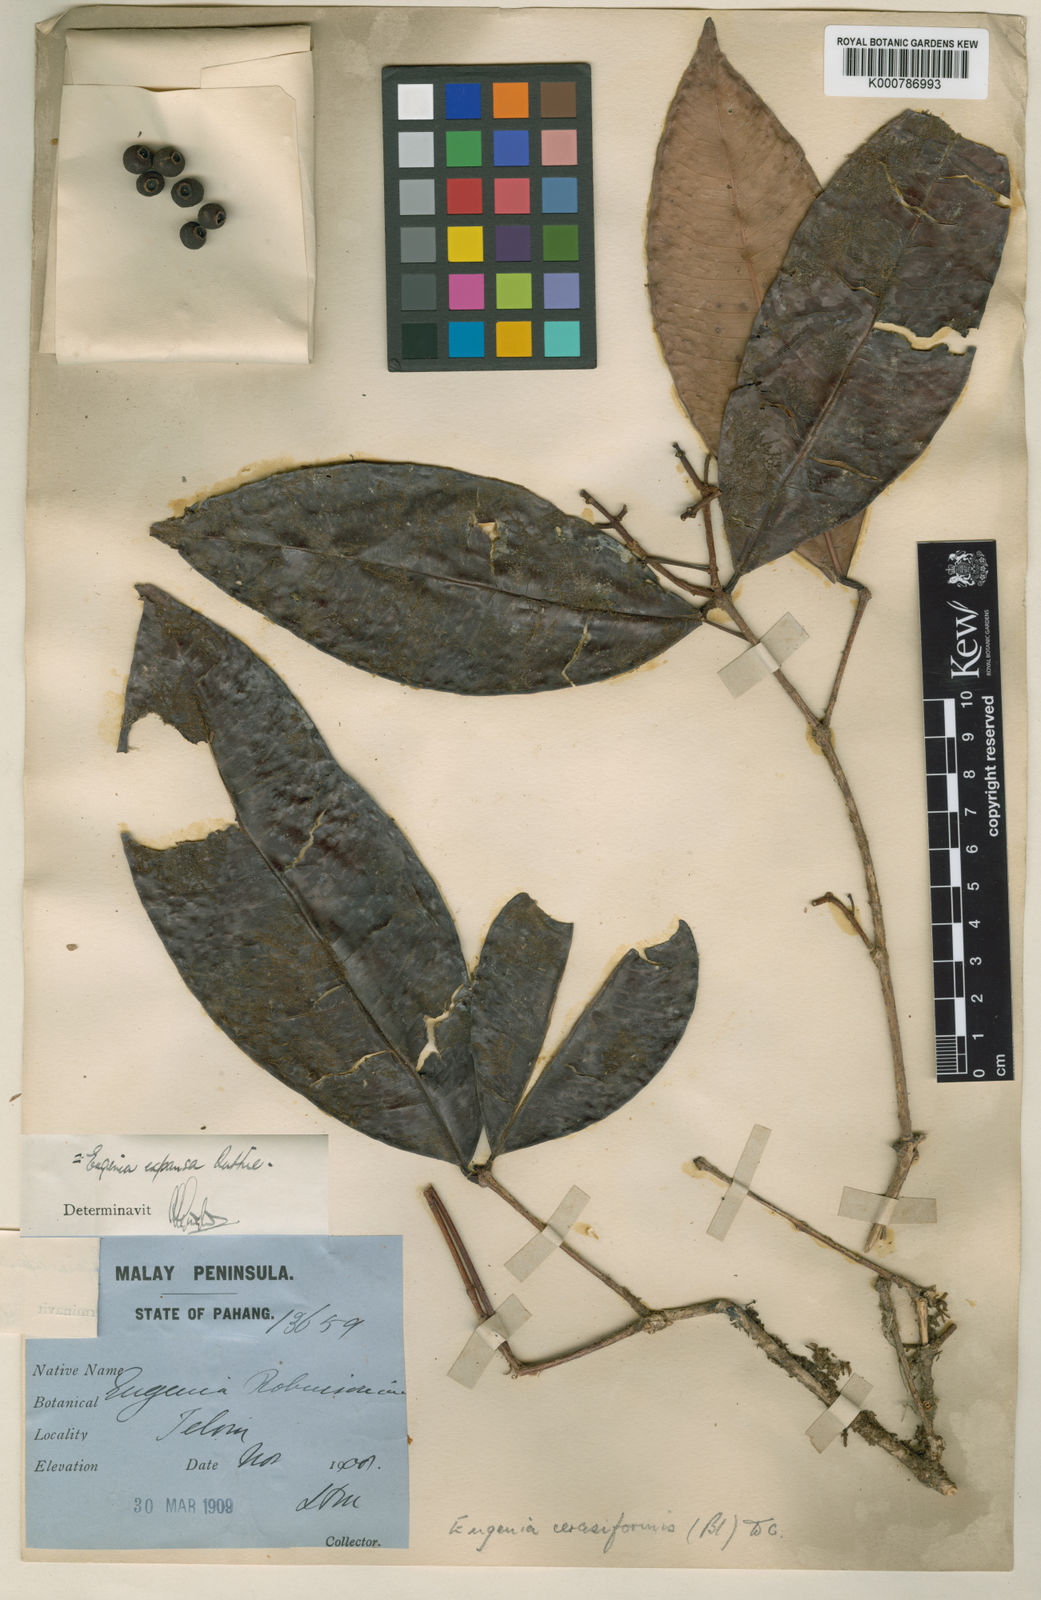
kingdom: Plantae
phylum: Tracheophyta
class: Magnoliopsida
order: Myrtales
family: Myrtaceae
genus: Syzygium
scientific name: Syzygium racemosum
